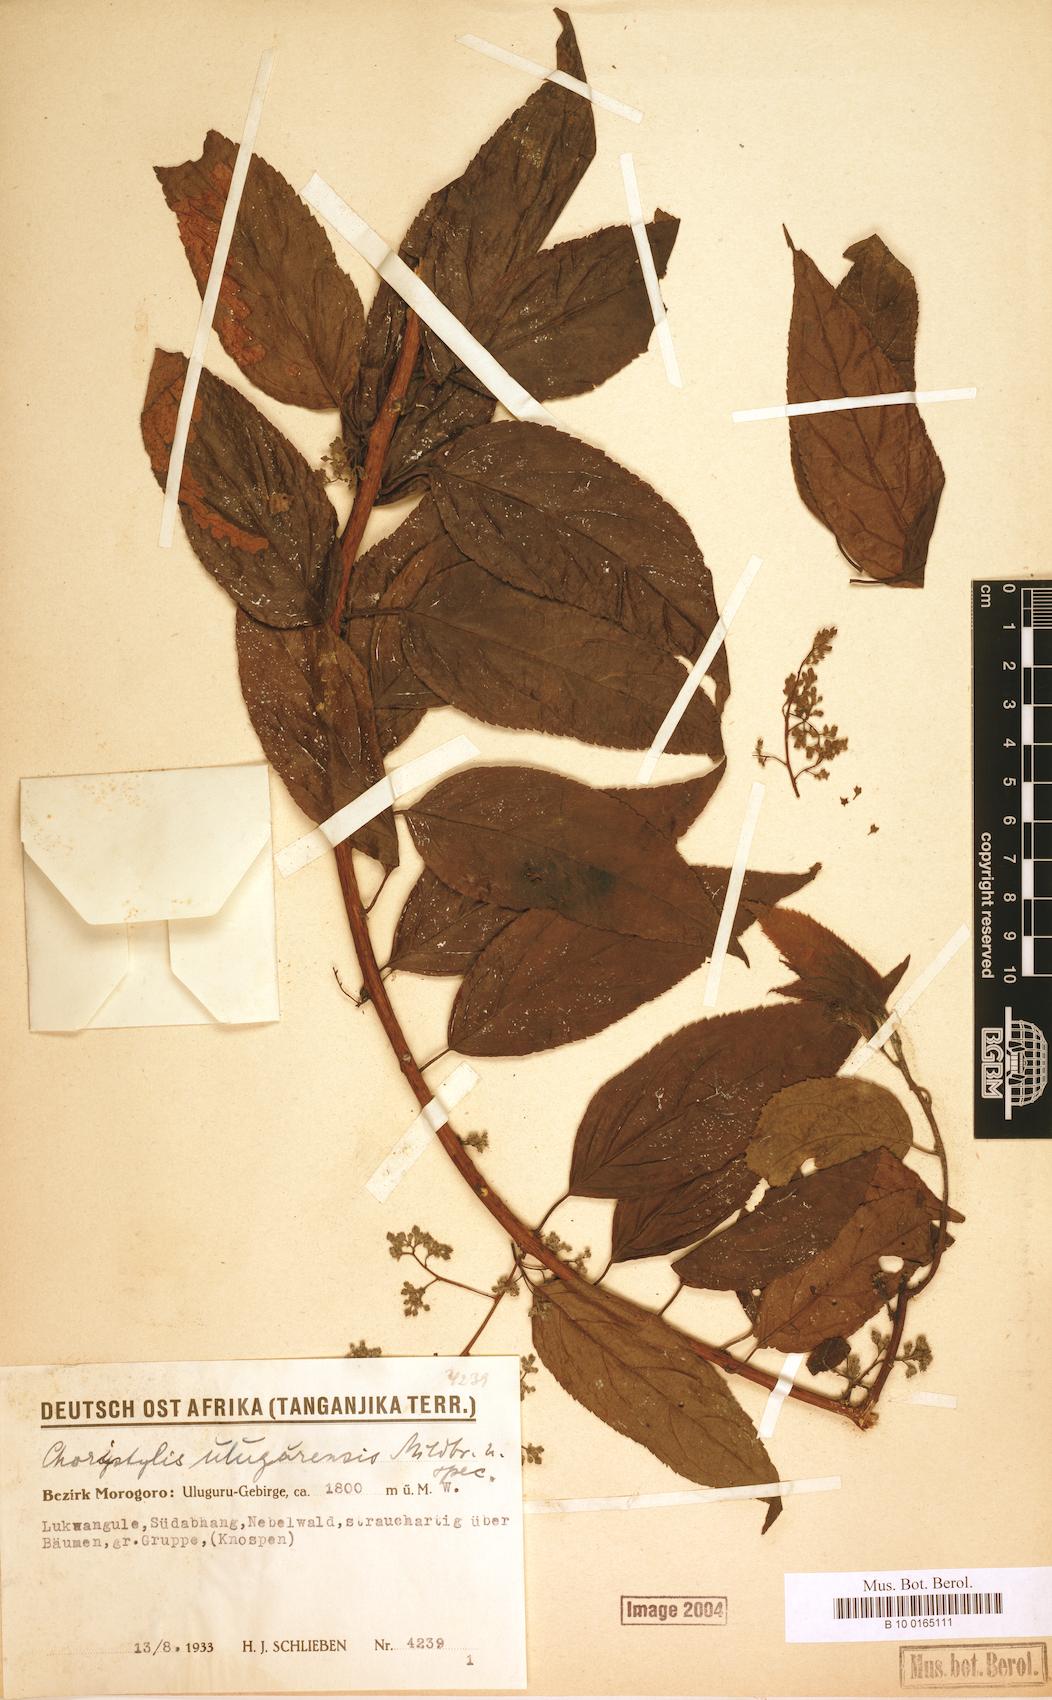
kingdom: Plantae
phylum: Tracheophyta
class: Magnoliopsida
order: Saxifragales
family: Iteaceae
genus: Itea
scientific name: Itea rhamnoides
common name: False dogwood
